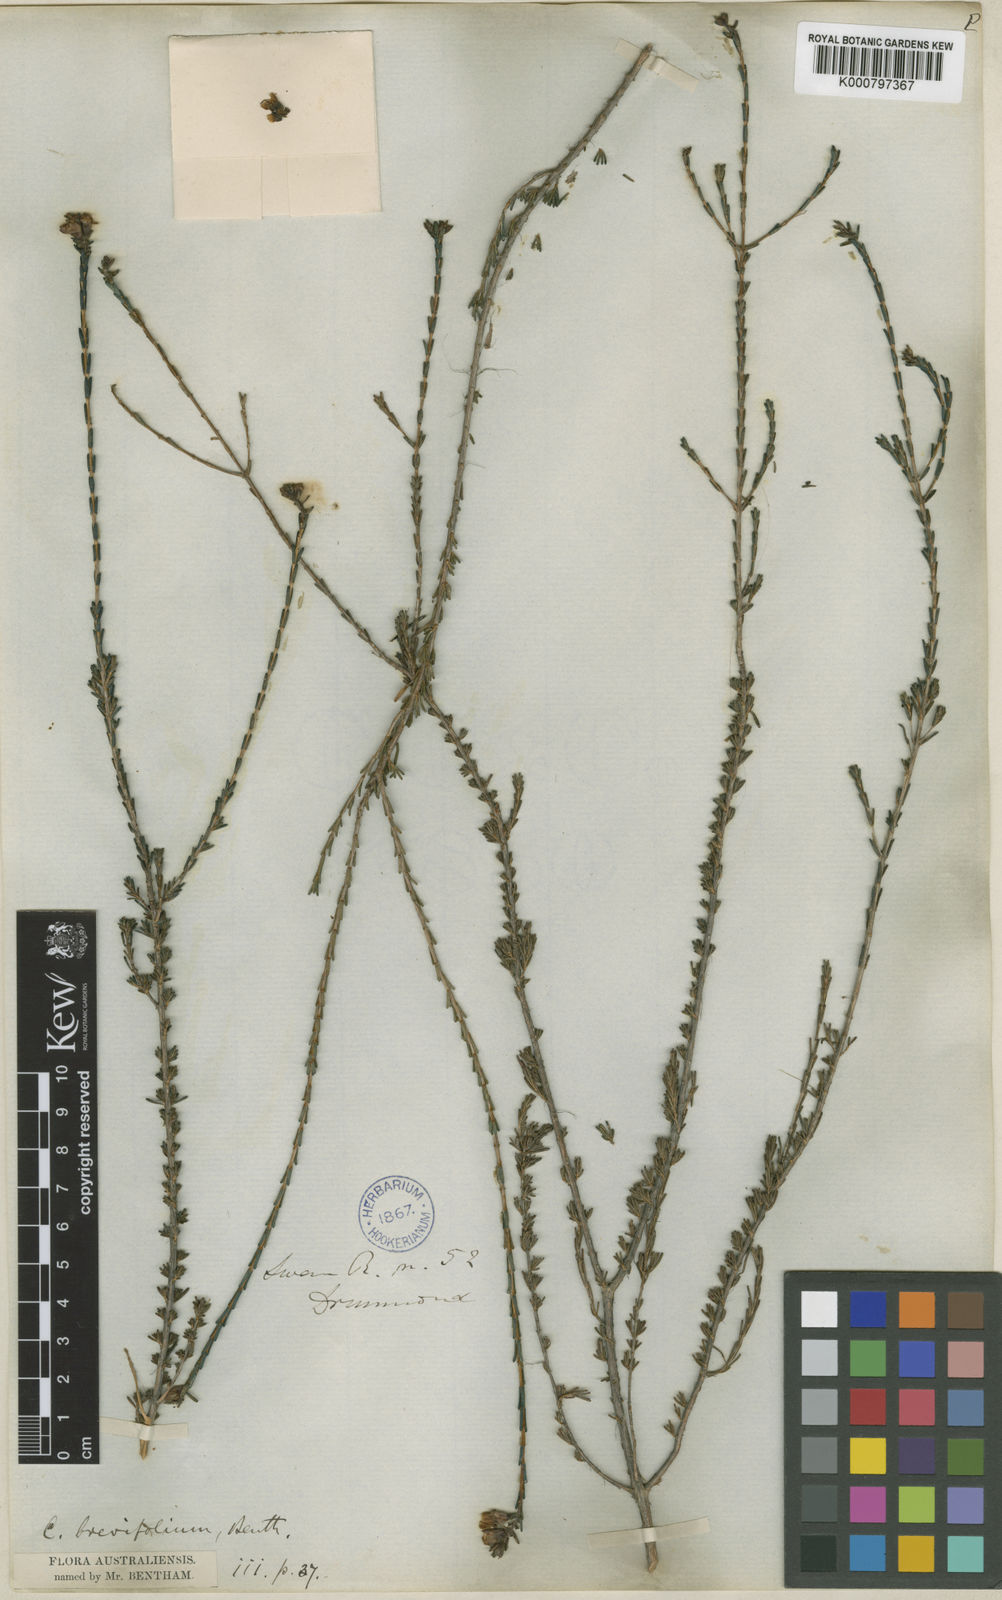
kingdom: Plantae
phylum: Tracheophyta
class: Magnoliopsida
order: Myrtales
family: Myrtaceae
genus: Chamelaucium
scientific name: Chamelaucium drummondii
